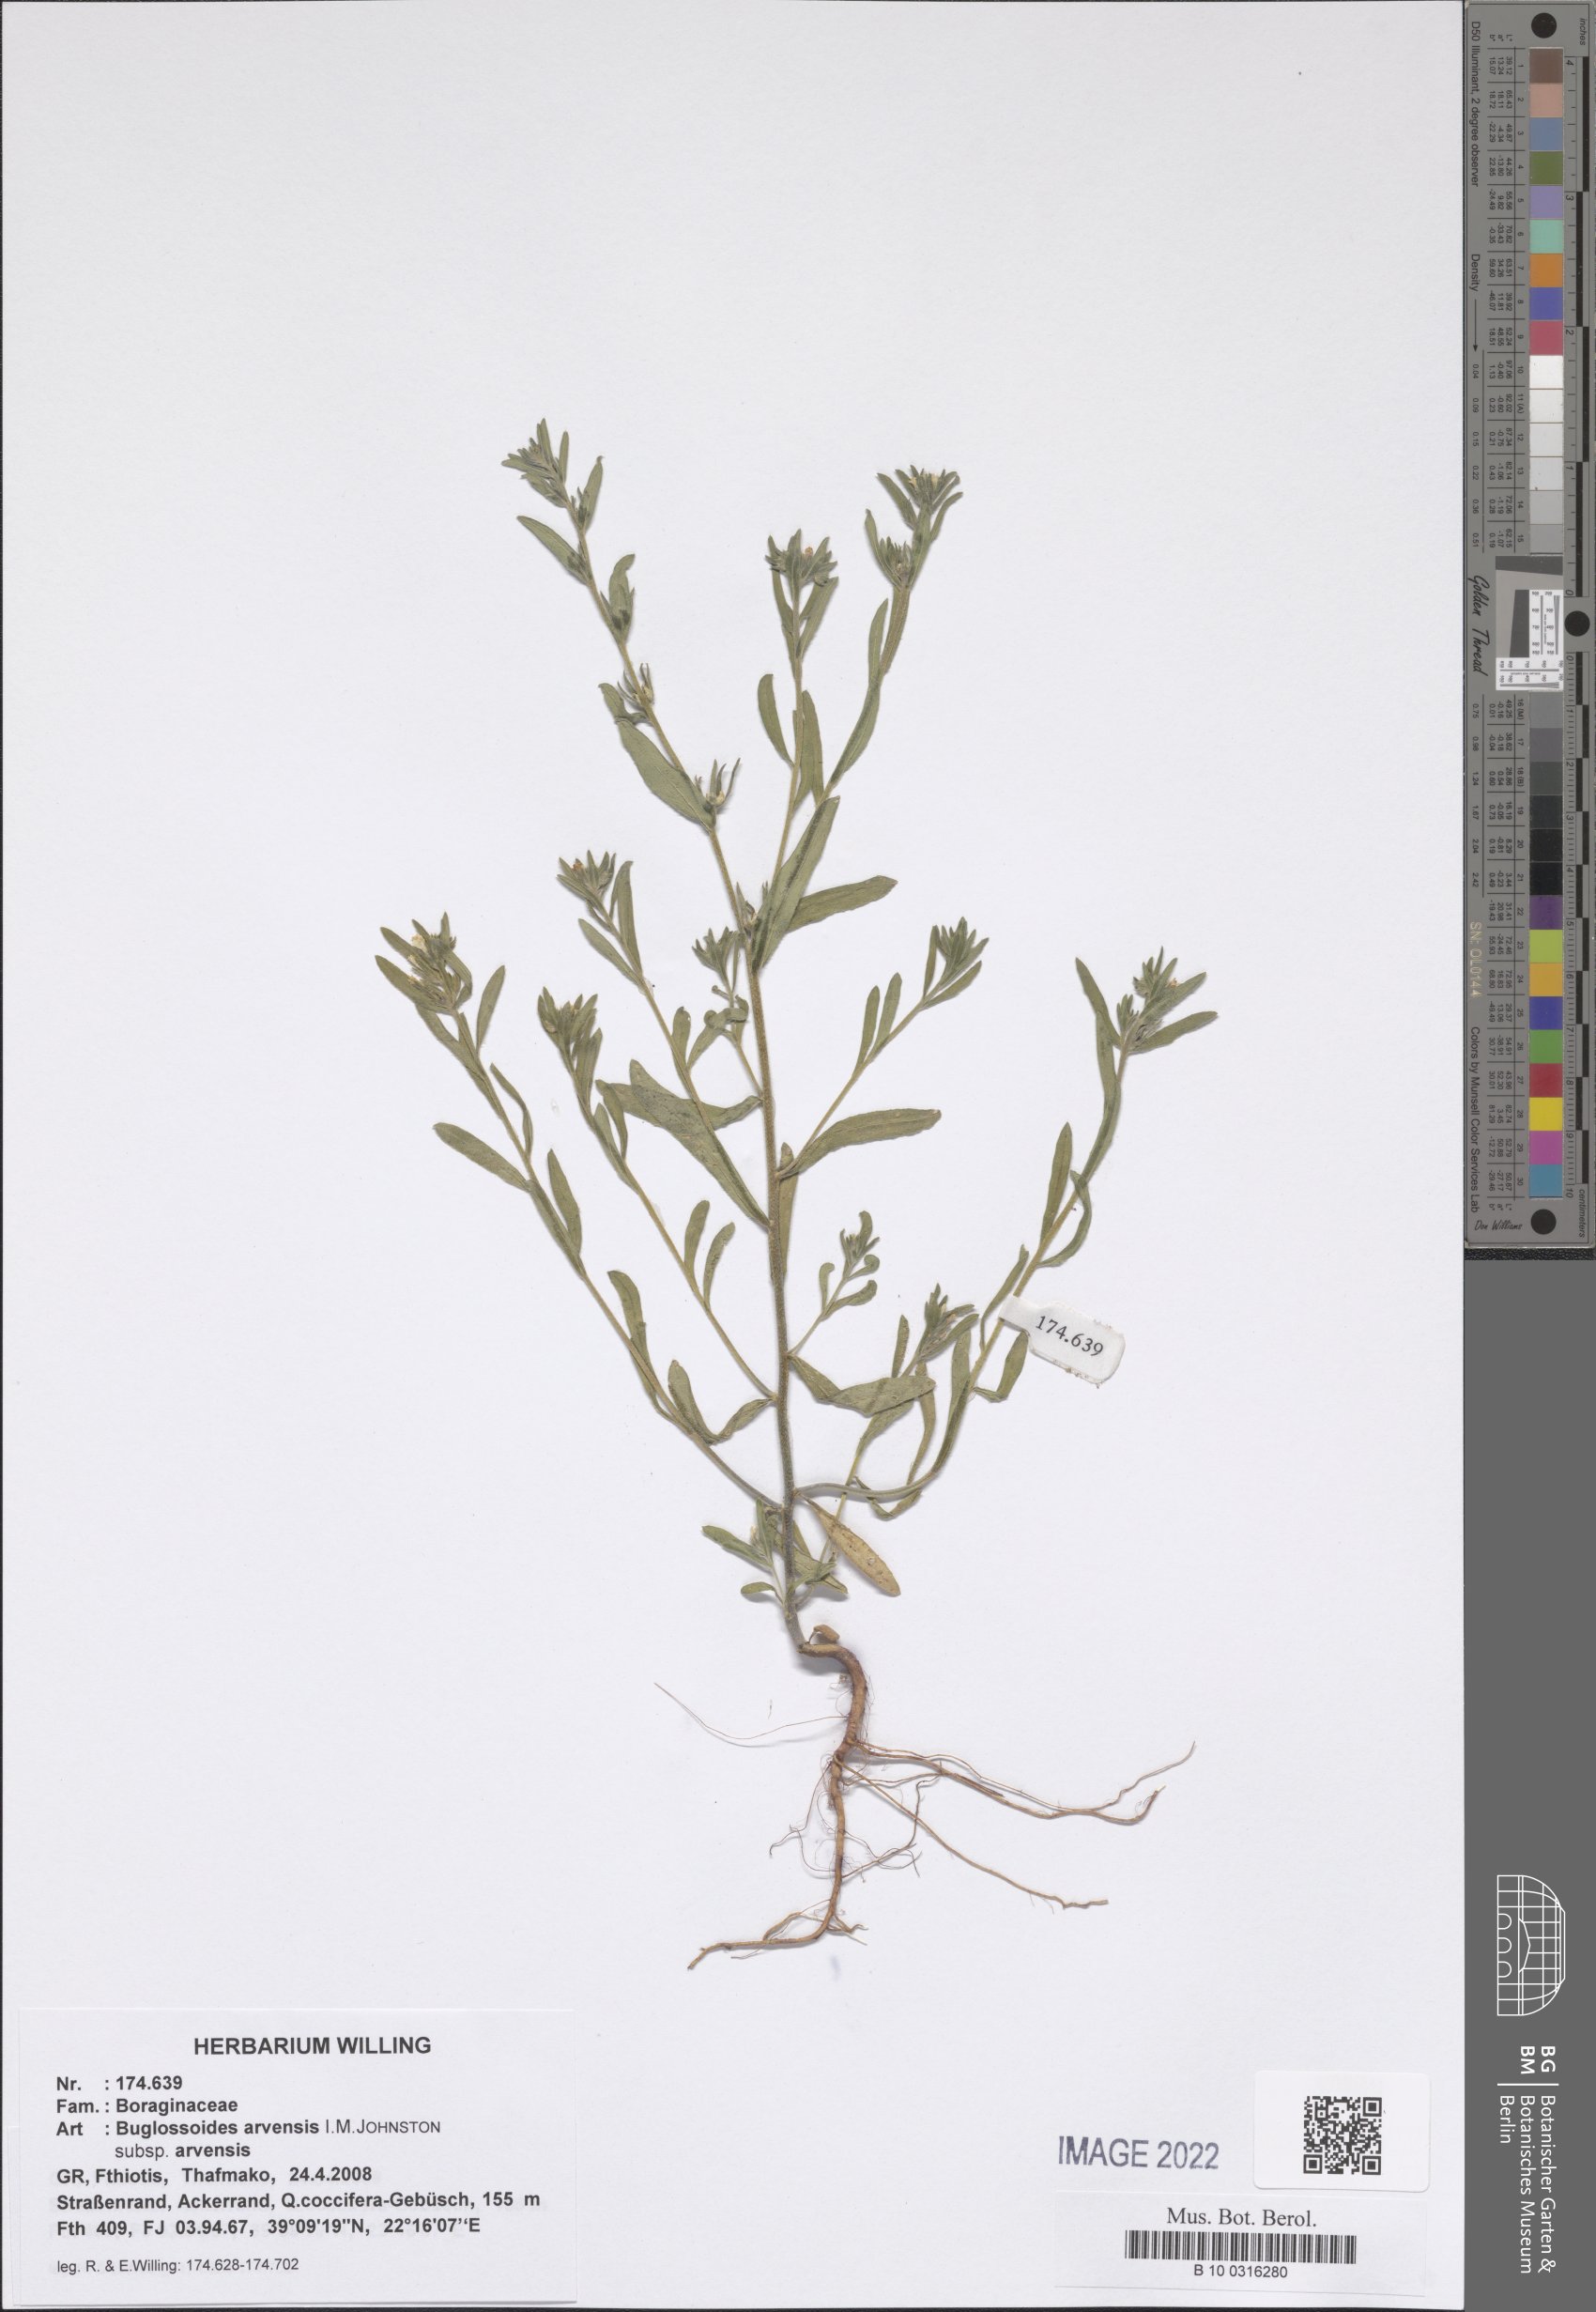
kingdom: Plantae
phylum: Tracheophyta
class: Magnoliopsida
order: Boraginales
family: Boraginaceae
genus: Buglossoides
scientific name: Buglossoides arvensis
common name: Corn gromwell
